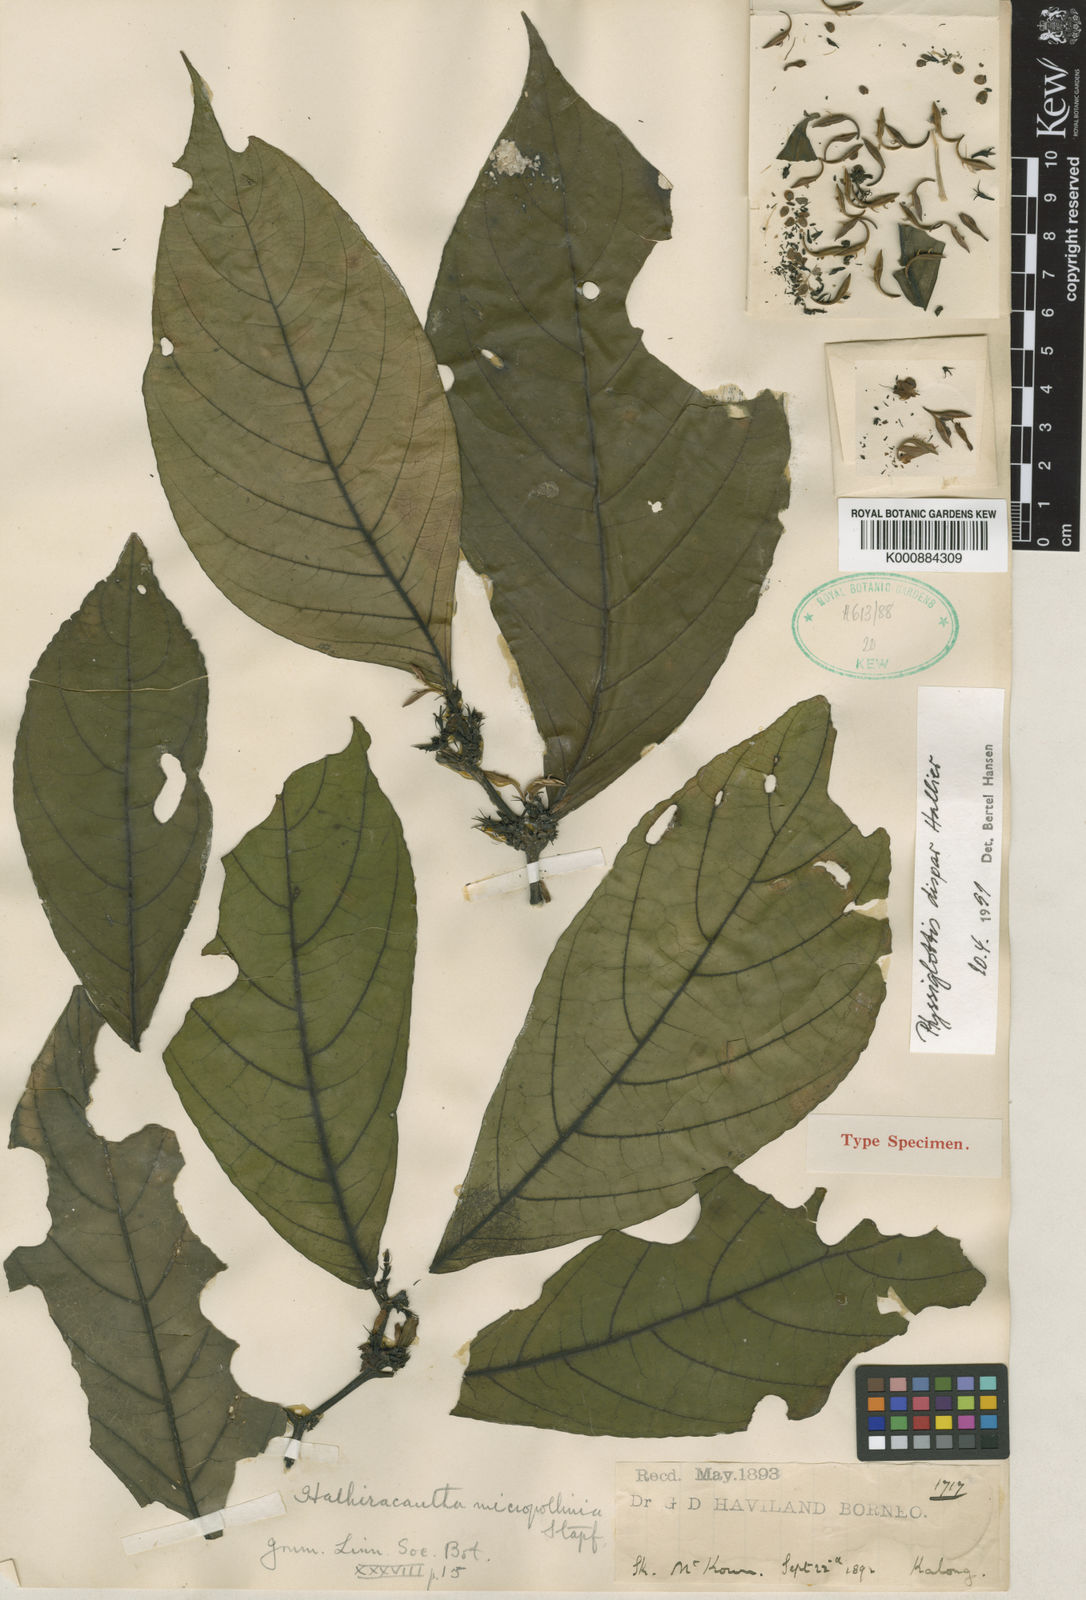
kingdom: Plantae
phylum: Tracheophyta
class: Magnoliopsida
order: Lamiales
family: Acanthaceae
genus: Justicia
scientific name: Justicia pulgarensis
